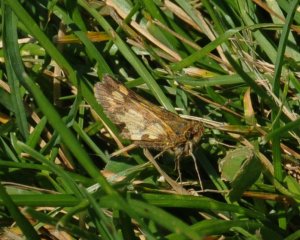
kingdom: Animalia
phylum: Arthropoda
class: Insecta
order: Lepidoptera
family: Hesperiidae
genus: Polites
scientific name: Polites coras
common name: Peck's Skipper
